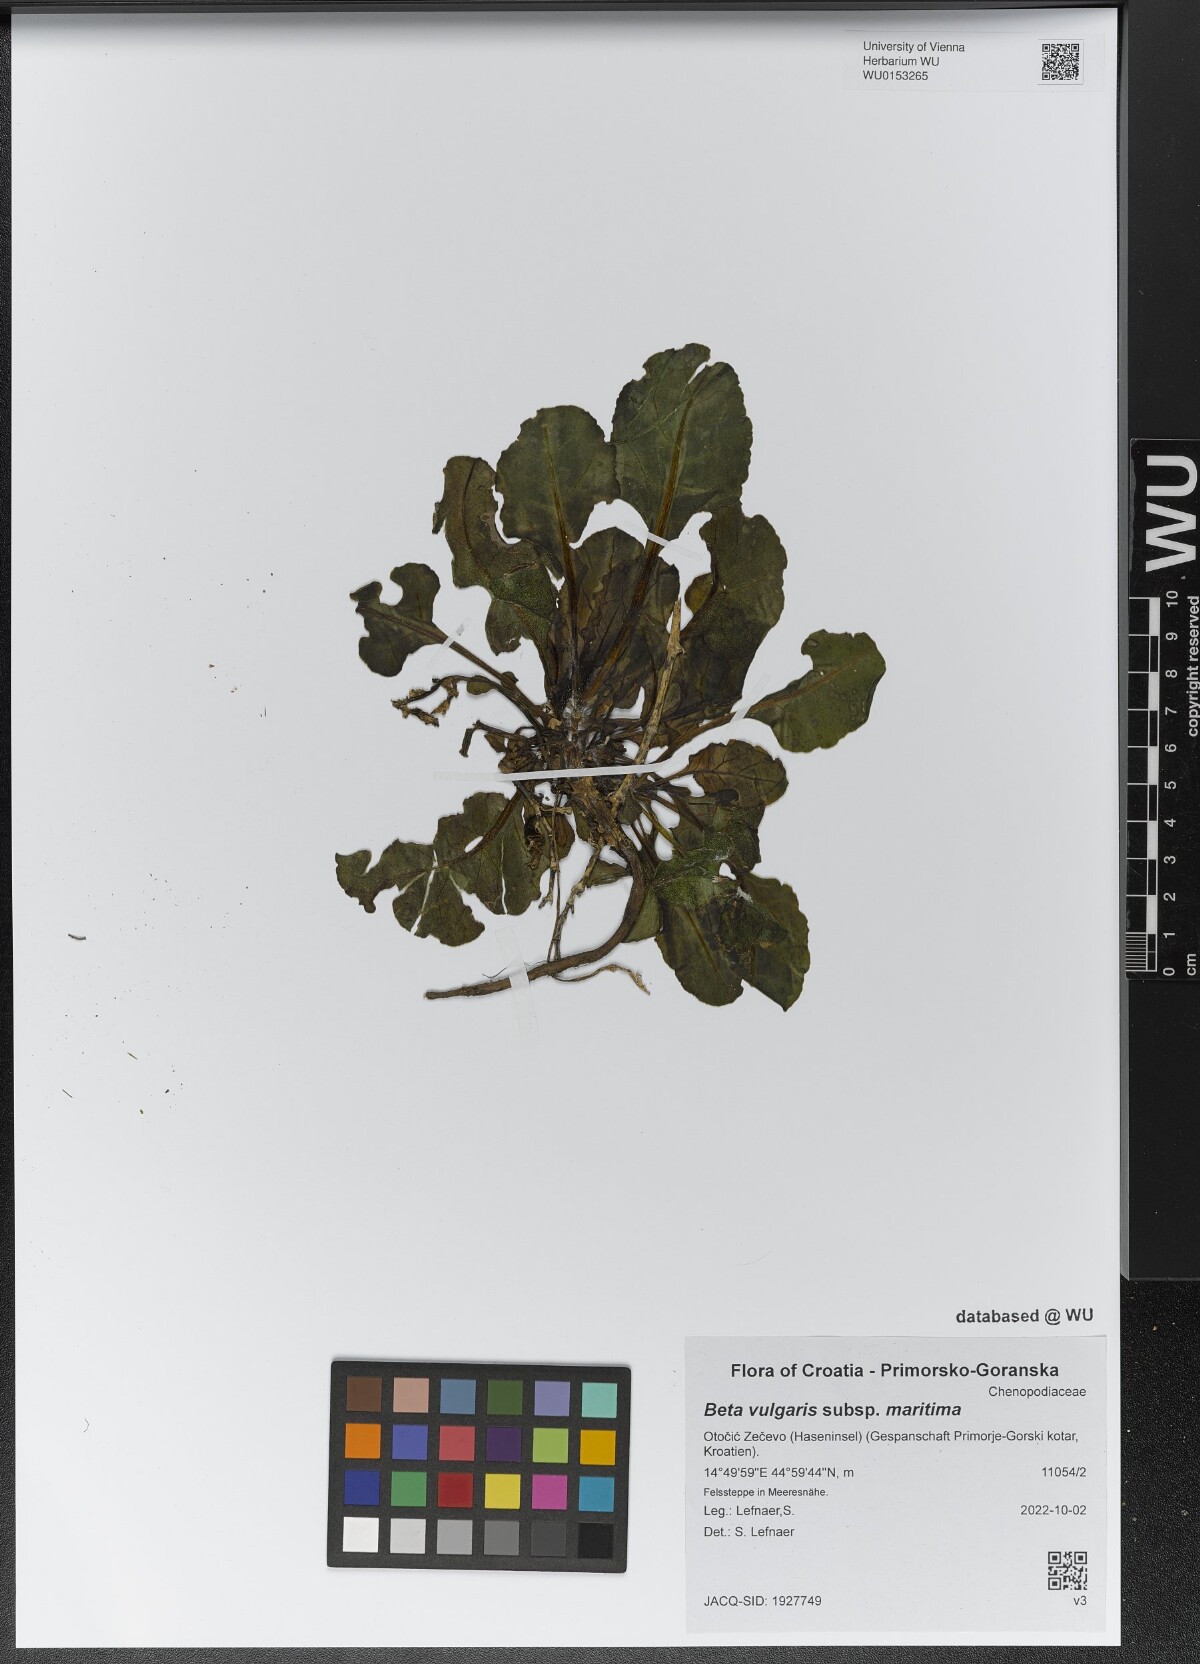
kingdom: Plantae
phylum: Tracheophyta
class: Magnoliopsida
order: Caryophyllales
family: Amaranthaceae
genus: Beta
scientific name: Beta maritima
